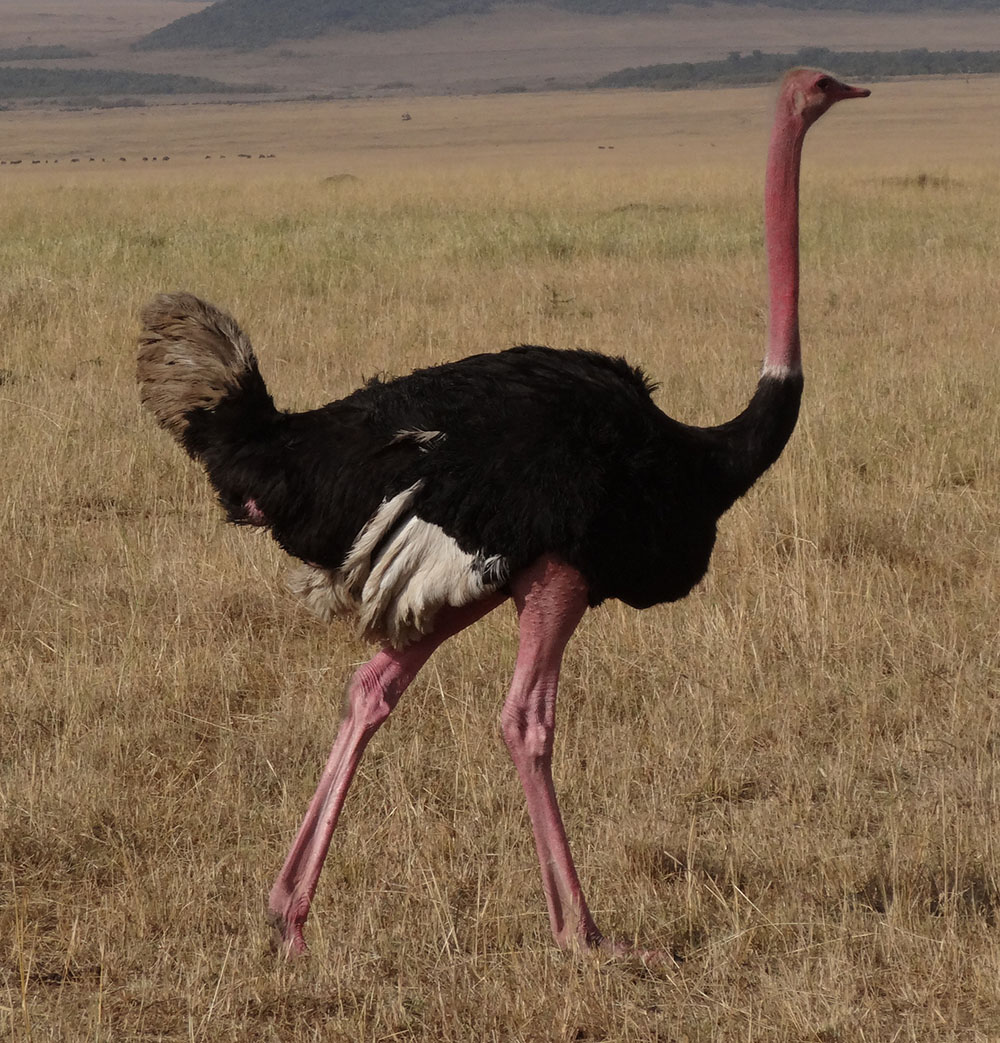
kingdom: Animalia
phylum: Chordata
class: Aves
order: Struthioniformes
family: Struthionidae
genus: Struthio
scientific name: Struthio camelus
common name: Common ostrich
